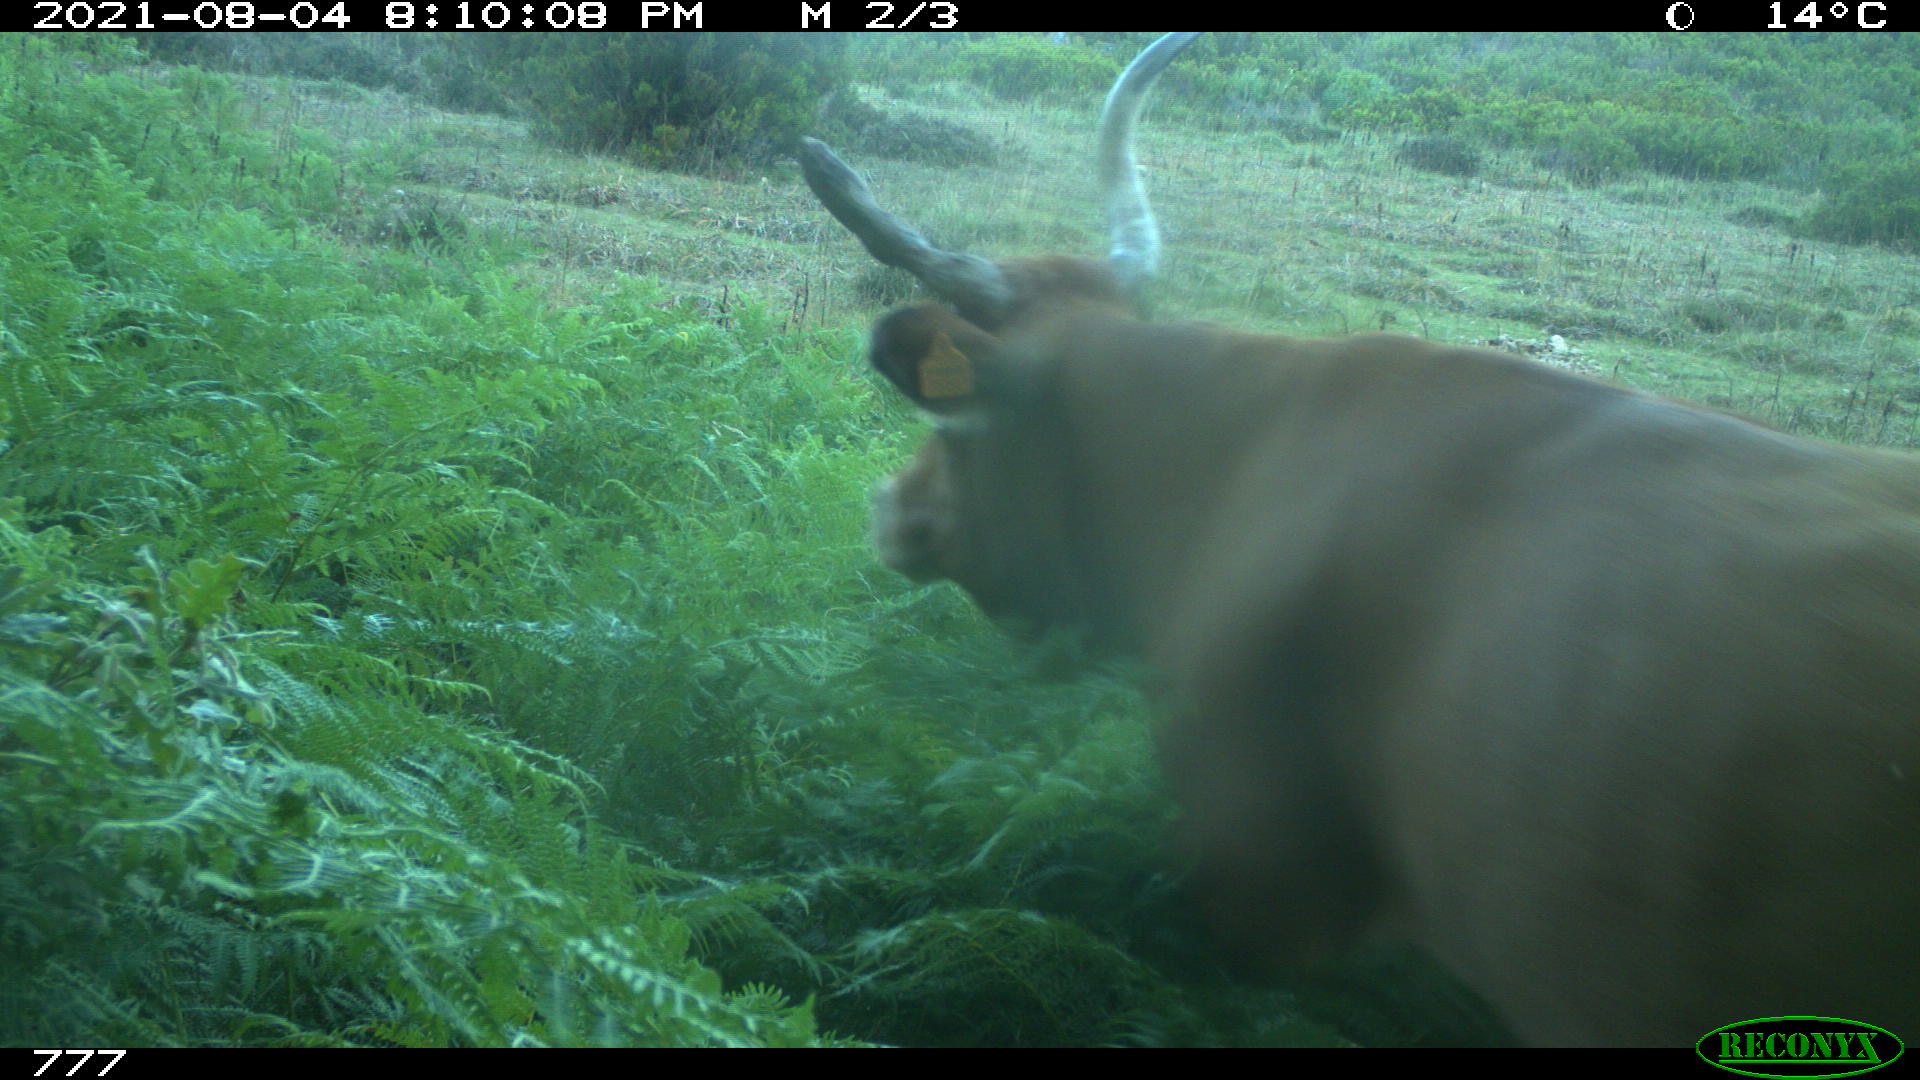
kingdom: Animalia
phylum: Chordata
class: Mammalia
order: Artiodactyla
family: Bovidae
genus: Bos
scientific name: Bos taurus
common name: Domesticated cattle
